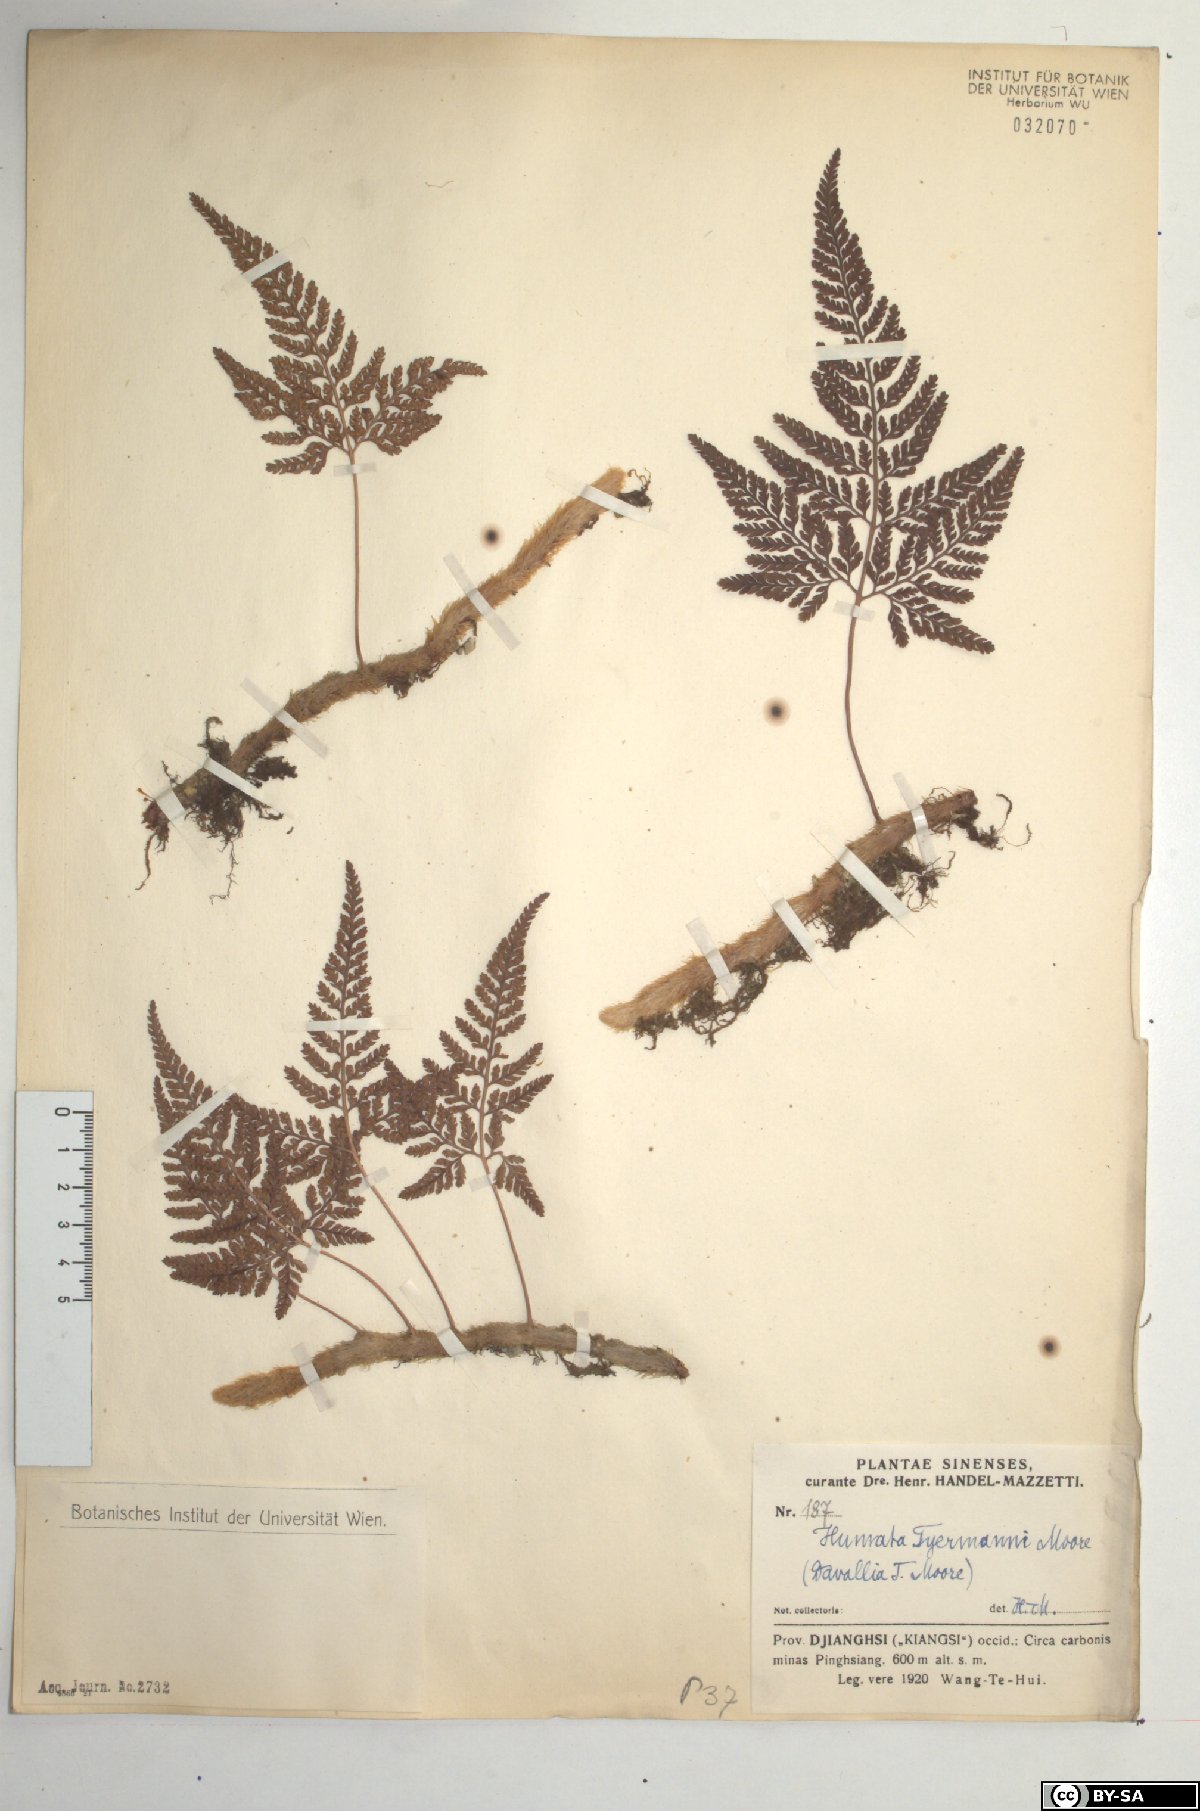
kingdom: Plantae
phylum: Tracheophyta
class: Polypodiopsida
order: Polypodiales
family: Davalliaceae
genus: Davallia
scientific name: Davallia tyermannii
